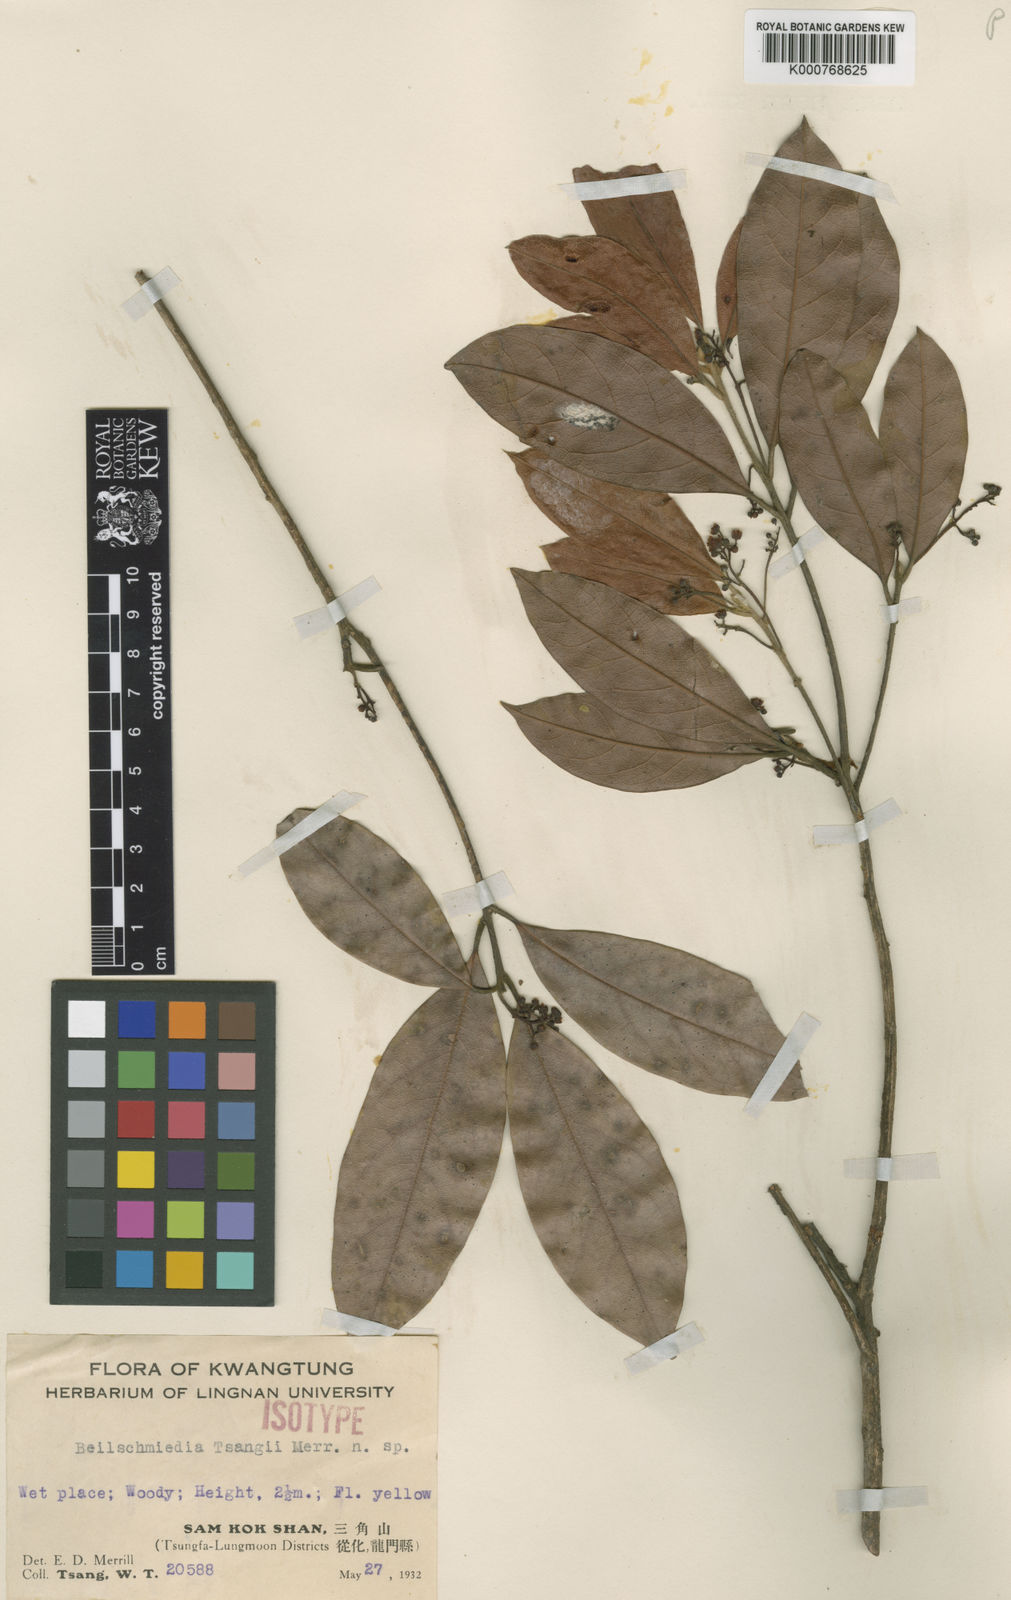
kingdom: Plantae
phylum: Tracheophyta
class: Magnoliopsida
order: Laurales
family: Lauraceae
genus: Beilschmiedia
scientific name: Beilschmiedia tsangii
